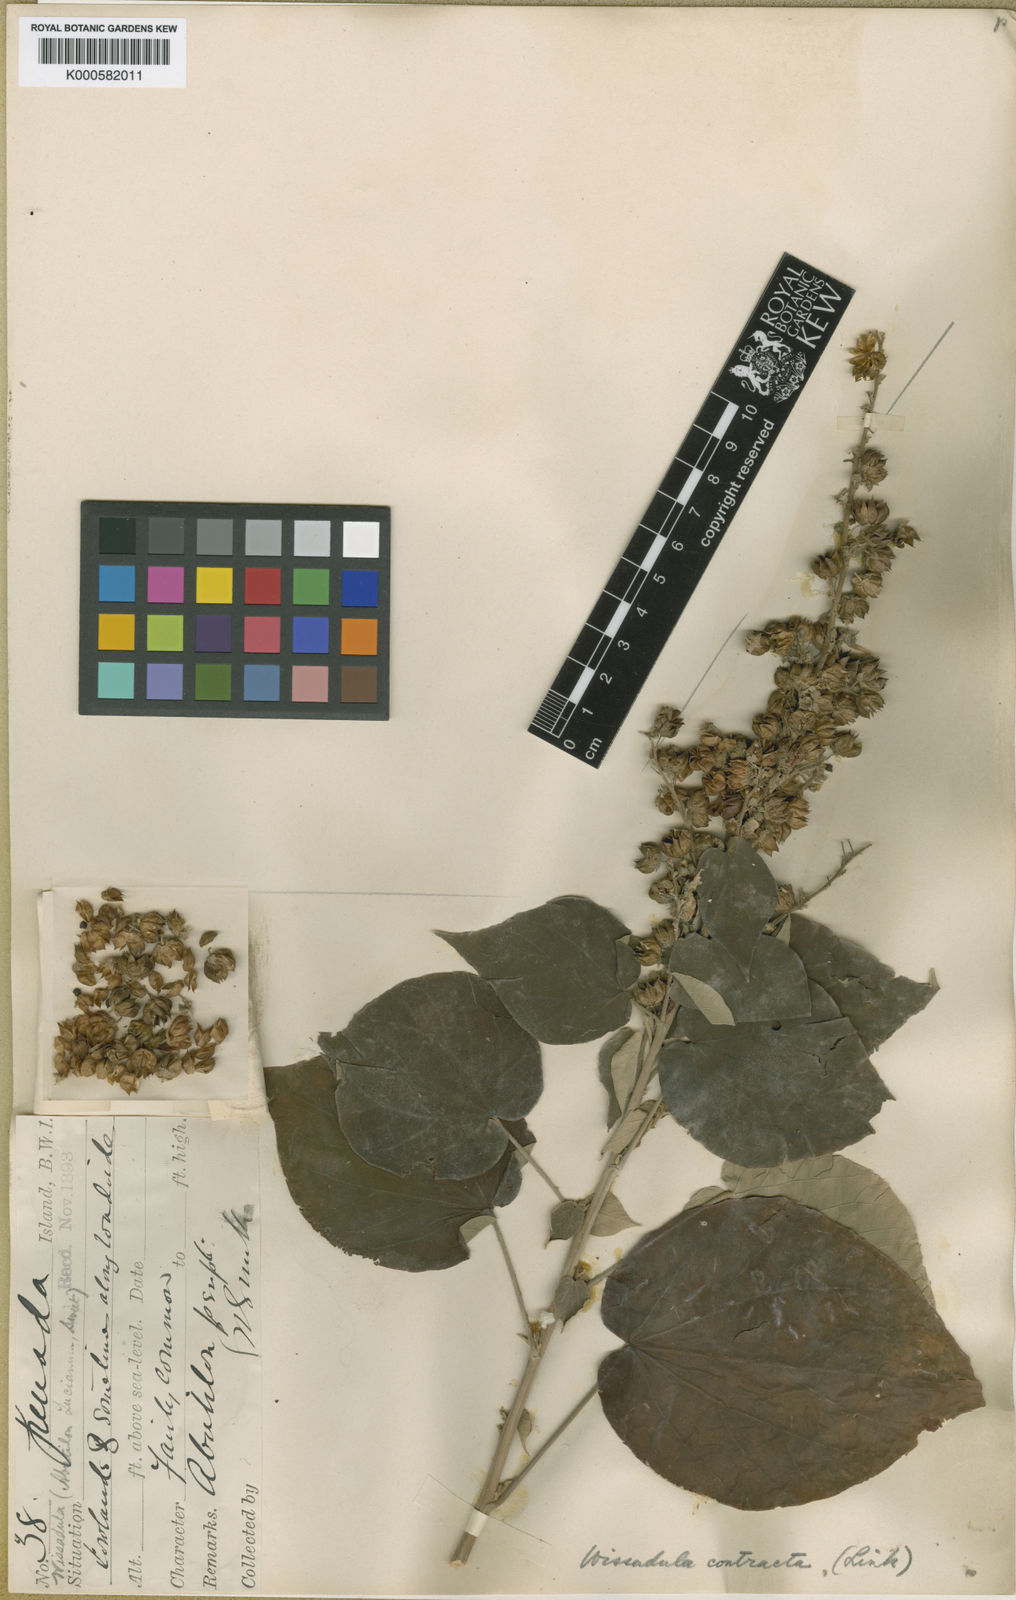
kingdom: Plantae
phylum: Tracheophyta
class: Magnoliopsida
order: Malvales
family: Malvaceae
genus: Wissadula
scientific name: Wissadula contracta
